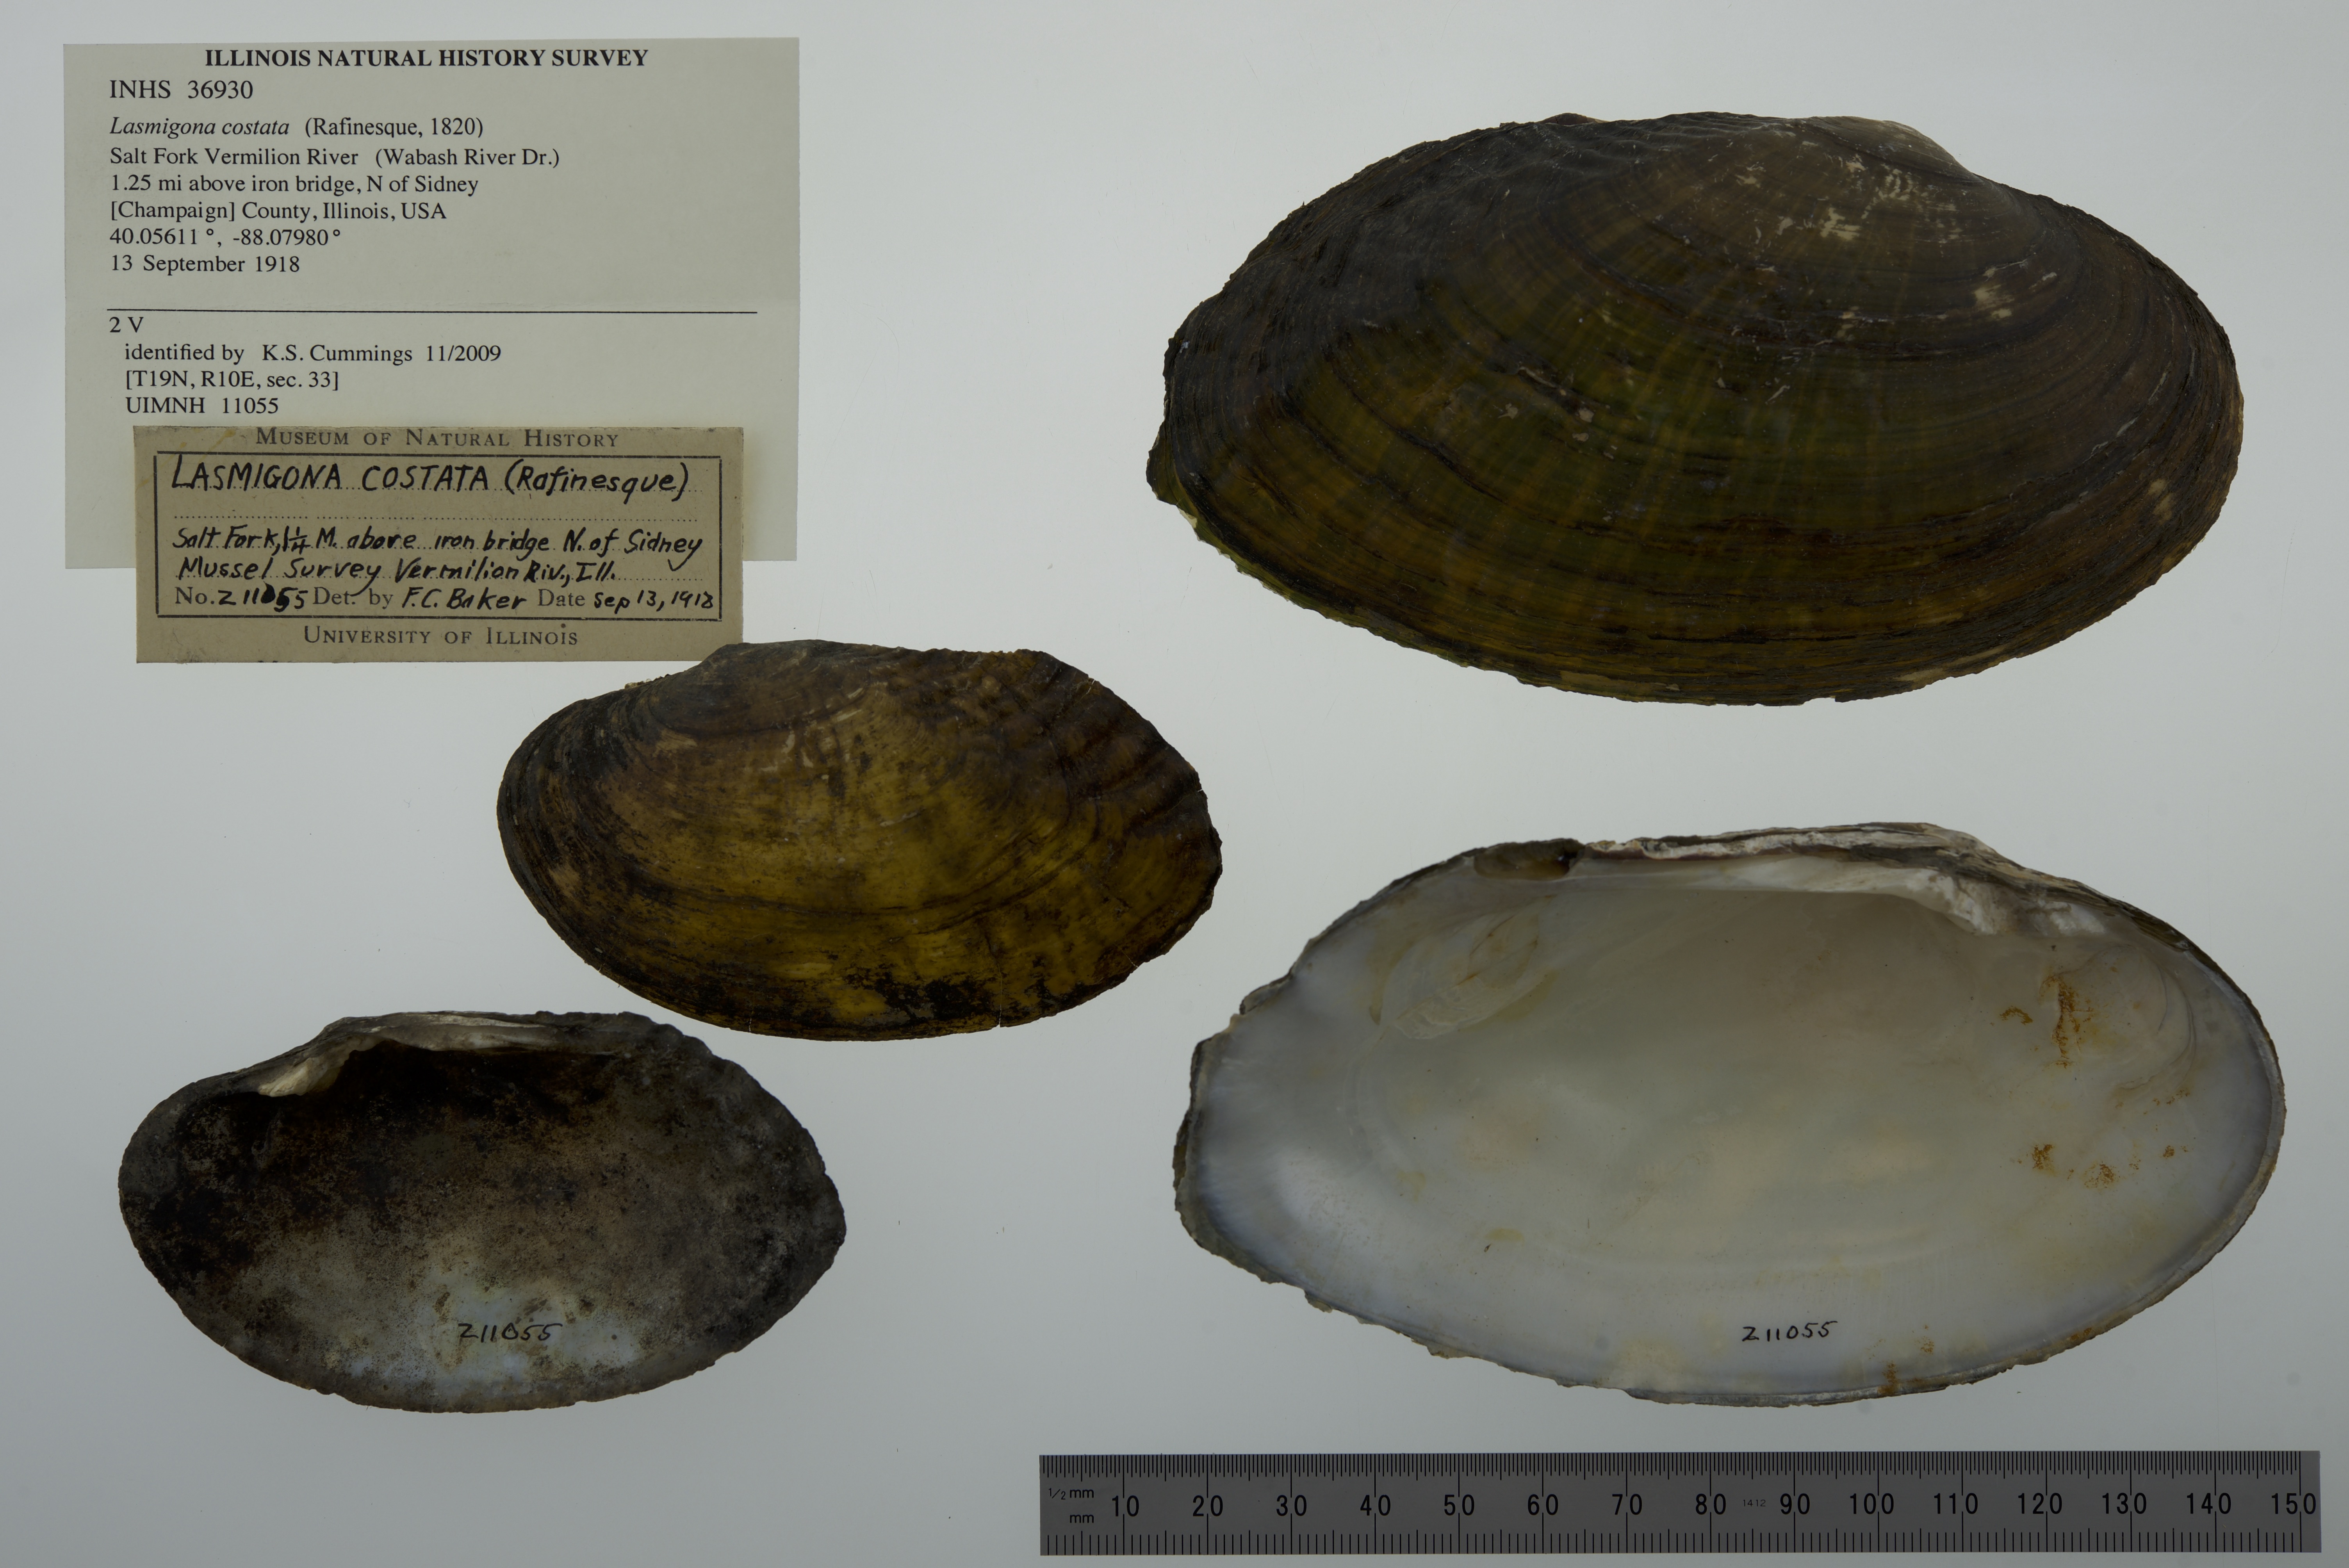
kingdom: Animalia
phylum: Mollusca
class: Bivalvia
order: Unionida
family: Unionidae
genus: Lasmigona
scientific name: Lasmigona costata
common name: Flutedshell
